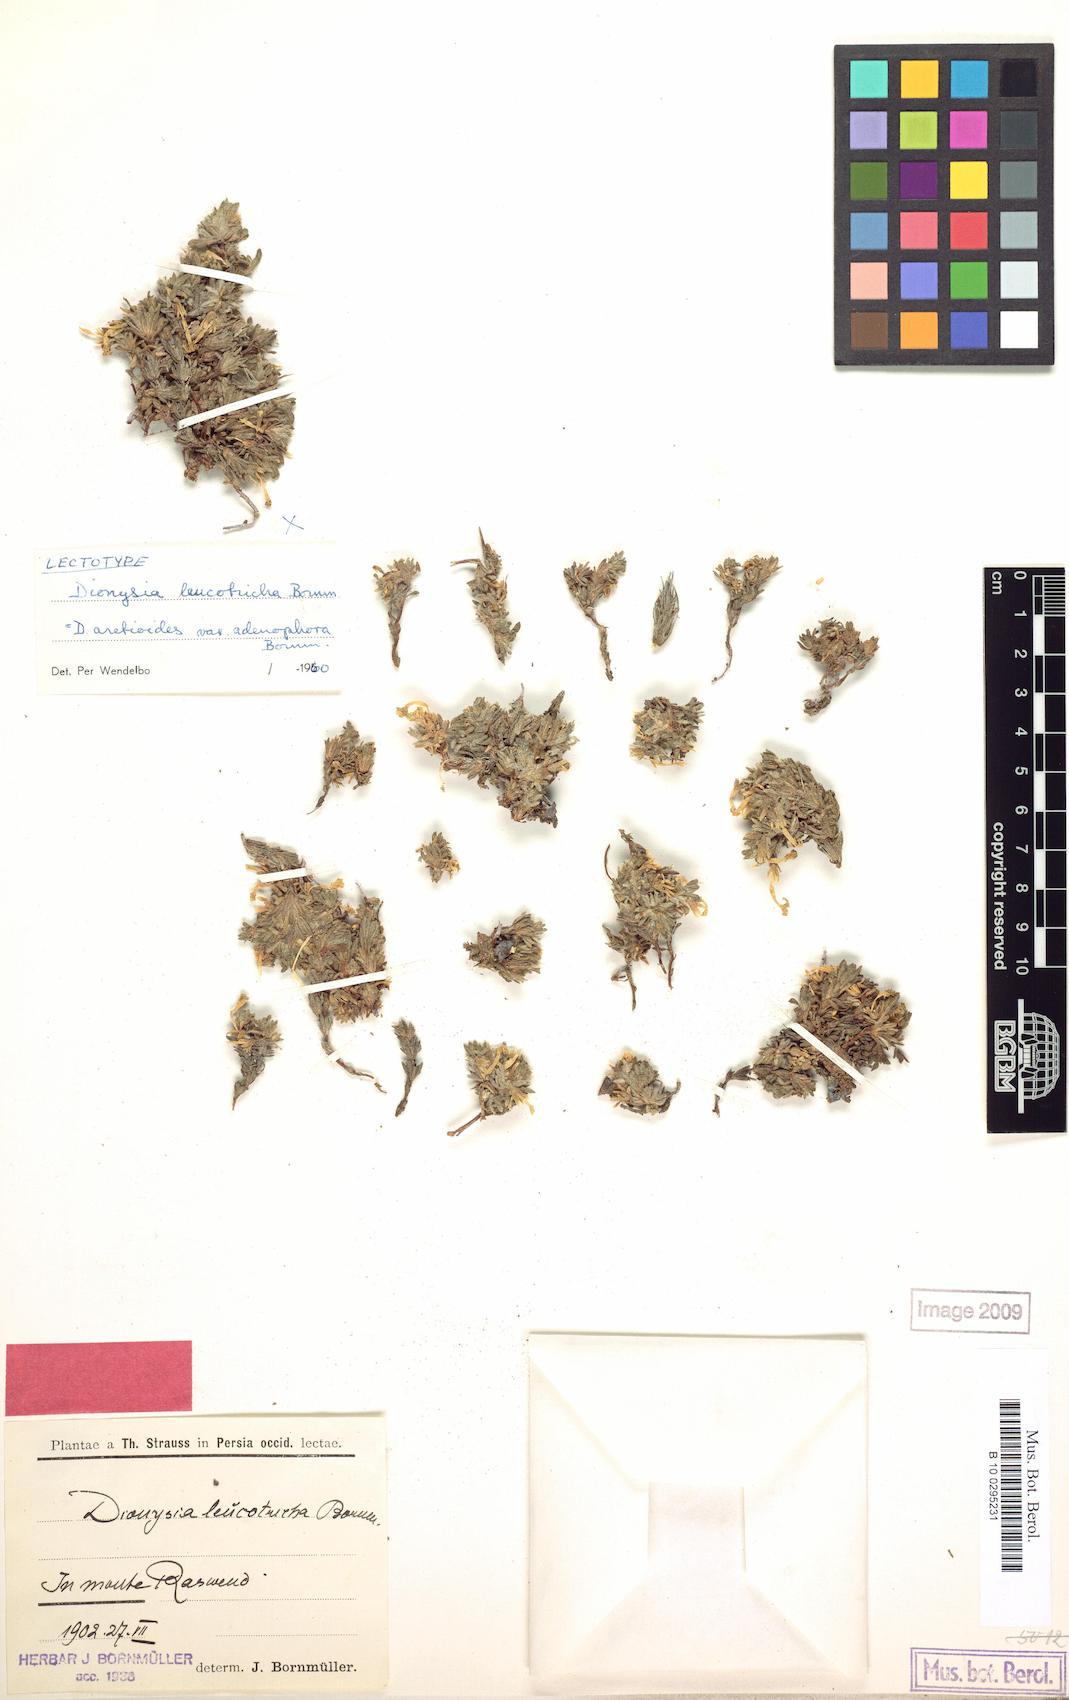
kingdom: Plantae
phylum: Tracheophyta
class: Magnoliopsida
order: Ericales
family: Primulaceae
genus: Dionysia
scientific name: Dionysia leucotricha
